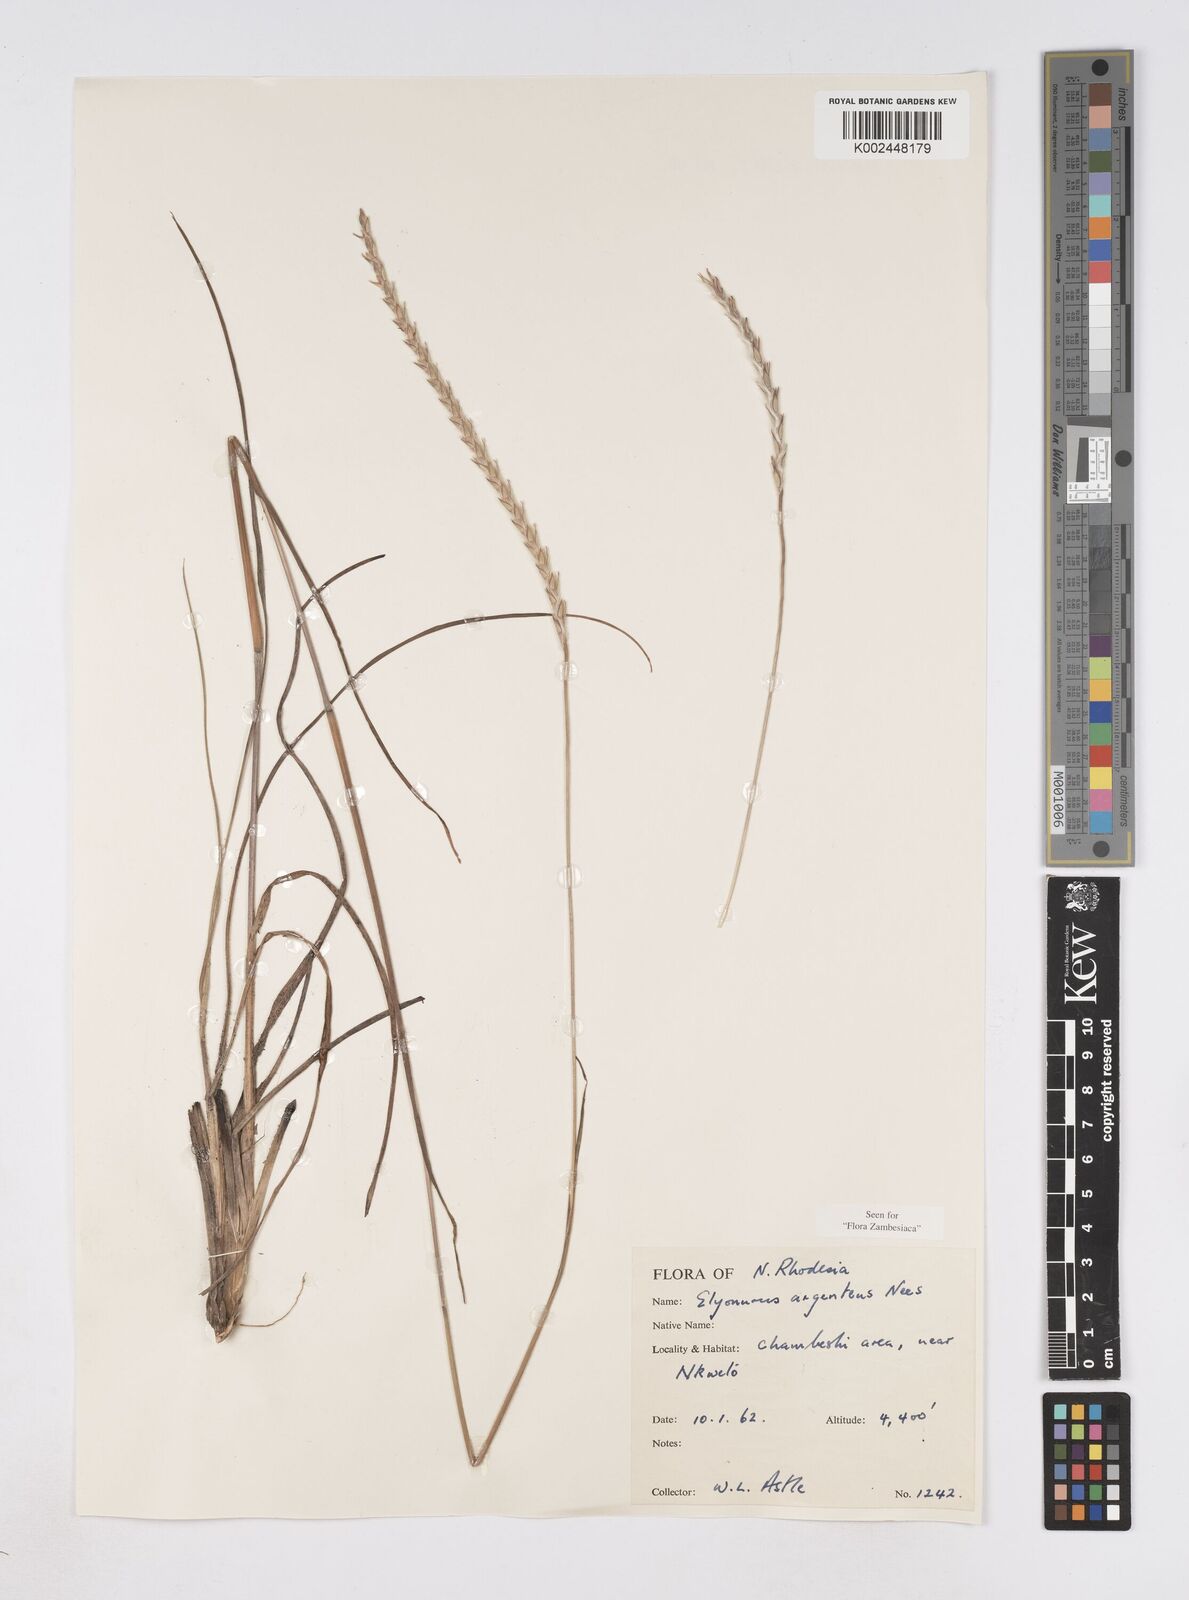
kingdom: Plantae
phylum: Tracheophyta
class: Liliopsida
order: Poales
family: Poaceae
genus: Elionurus
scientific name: Elionurus muticus
